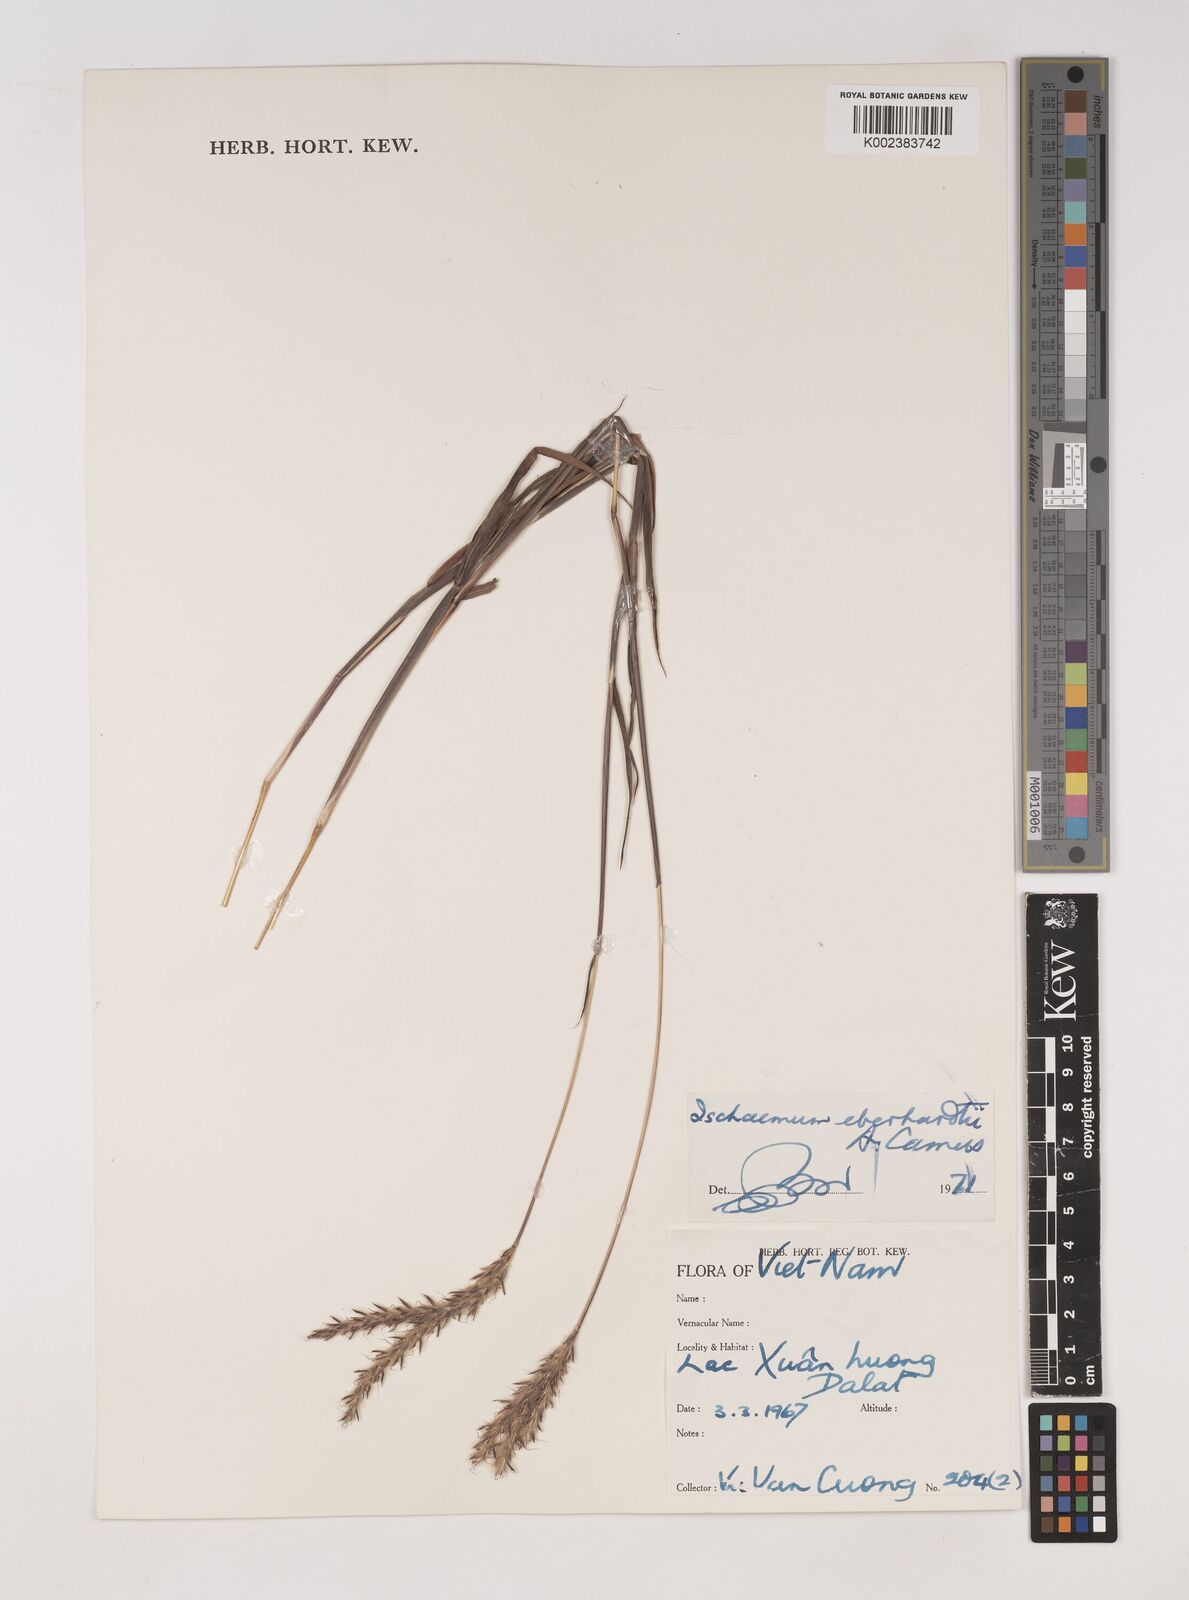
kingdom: Plantae
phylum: Tracheophyta
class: Liliopsida
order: Poales
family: Poaceae
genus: Ischaemum
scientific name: Ischaemum eberhardtii
